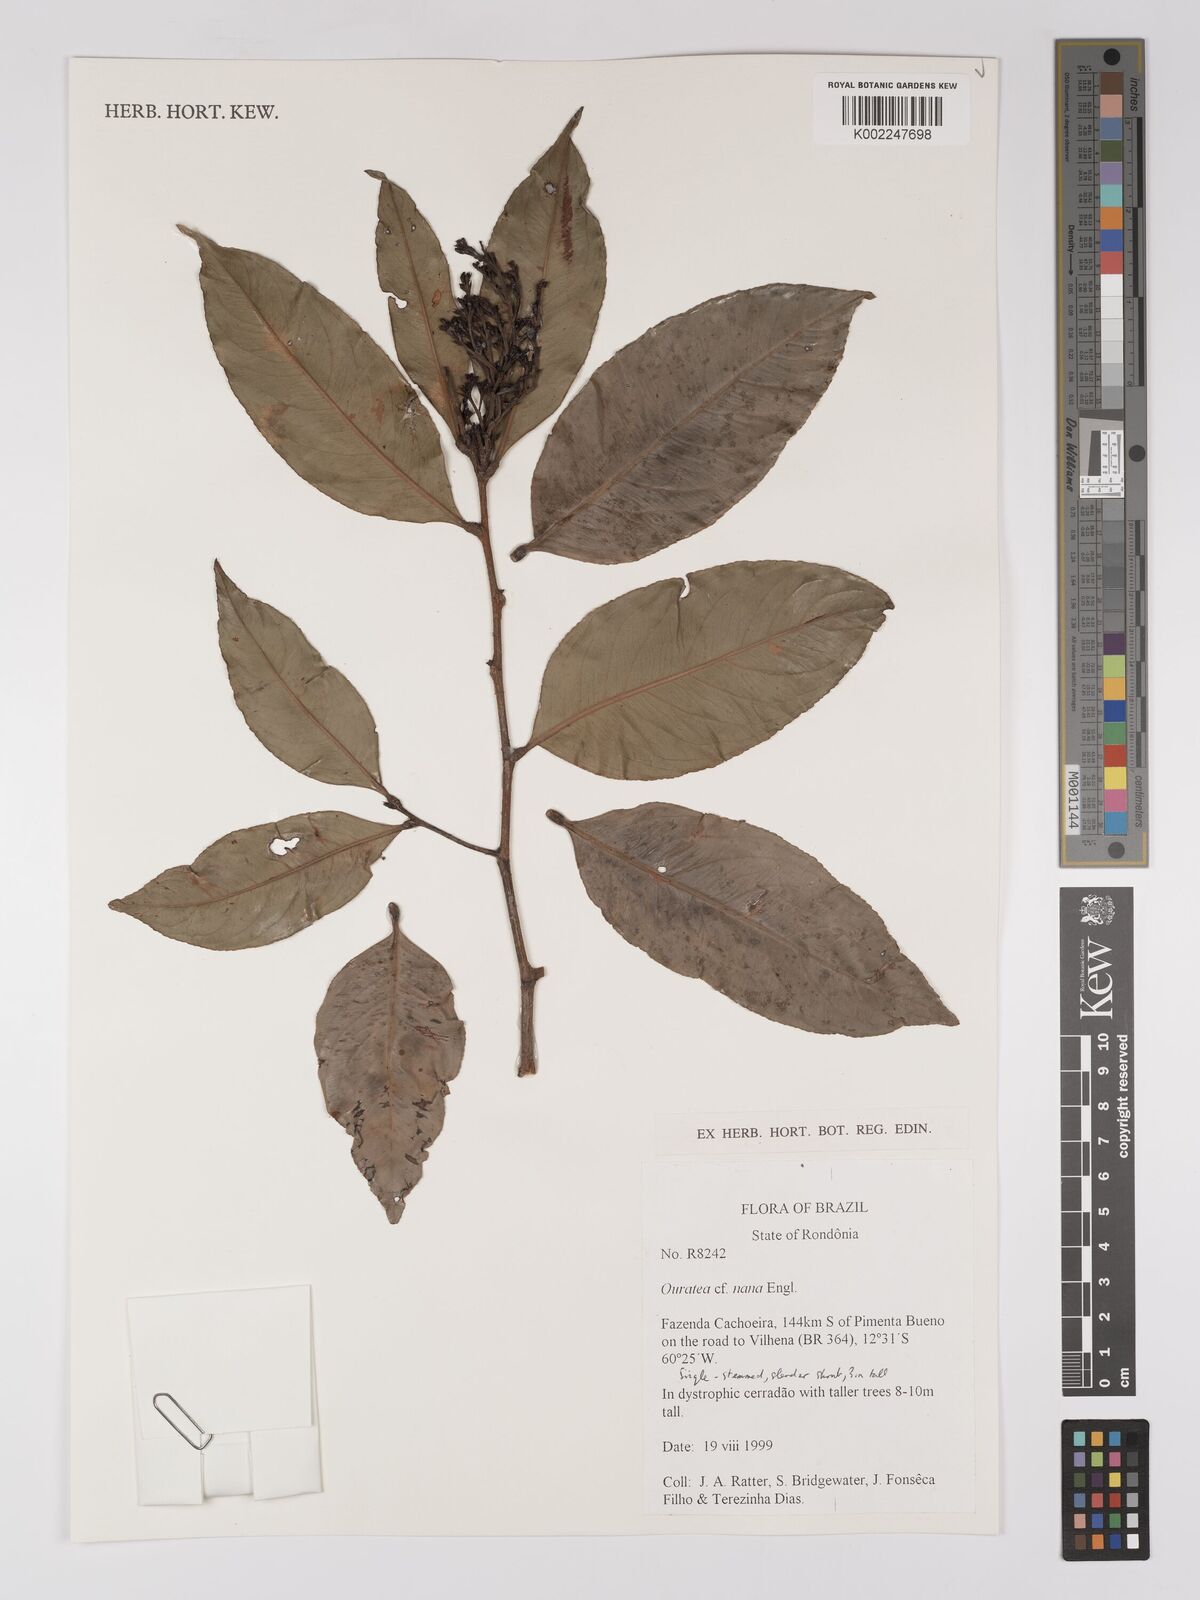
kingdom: Plantae
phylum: Tracheophyta
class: Magnoliopsida
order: Malpighiales
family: Ochnaceae
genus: Ouratea
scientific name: Ouratea nana
